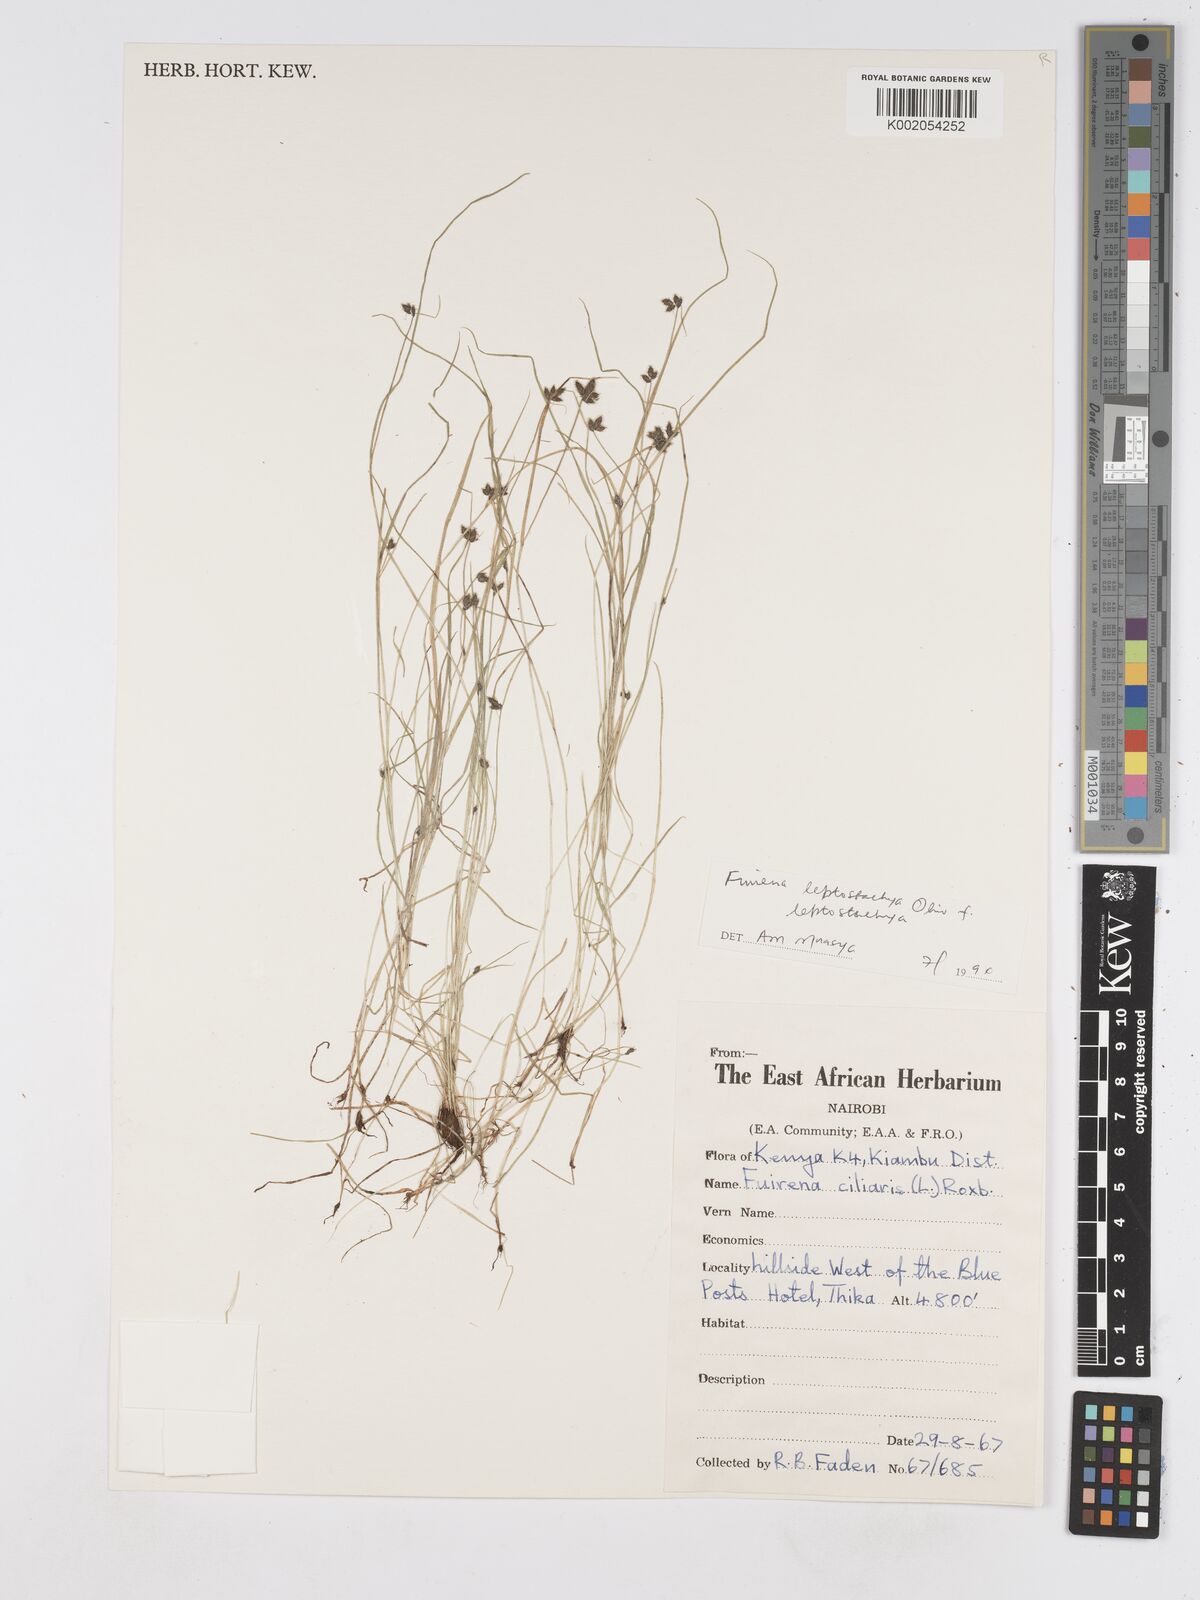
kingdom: Plantae
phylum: Tracheophyta
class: Liliopsida
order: Poales
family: Cyperaceae
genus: Fuirena
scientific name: Fuirena leptostachya
